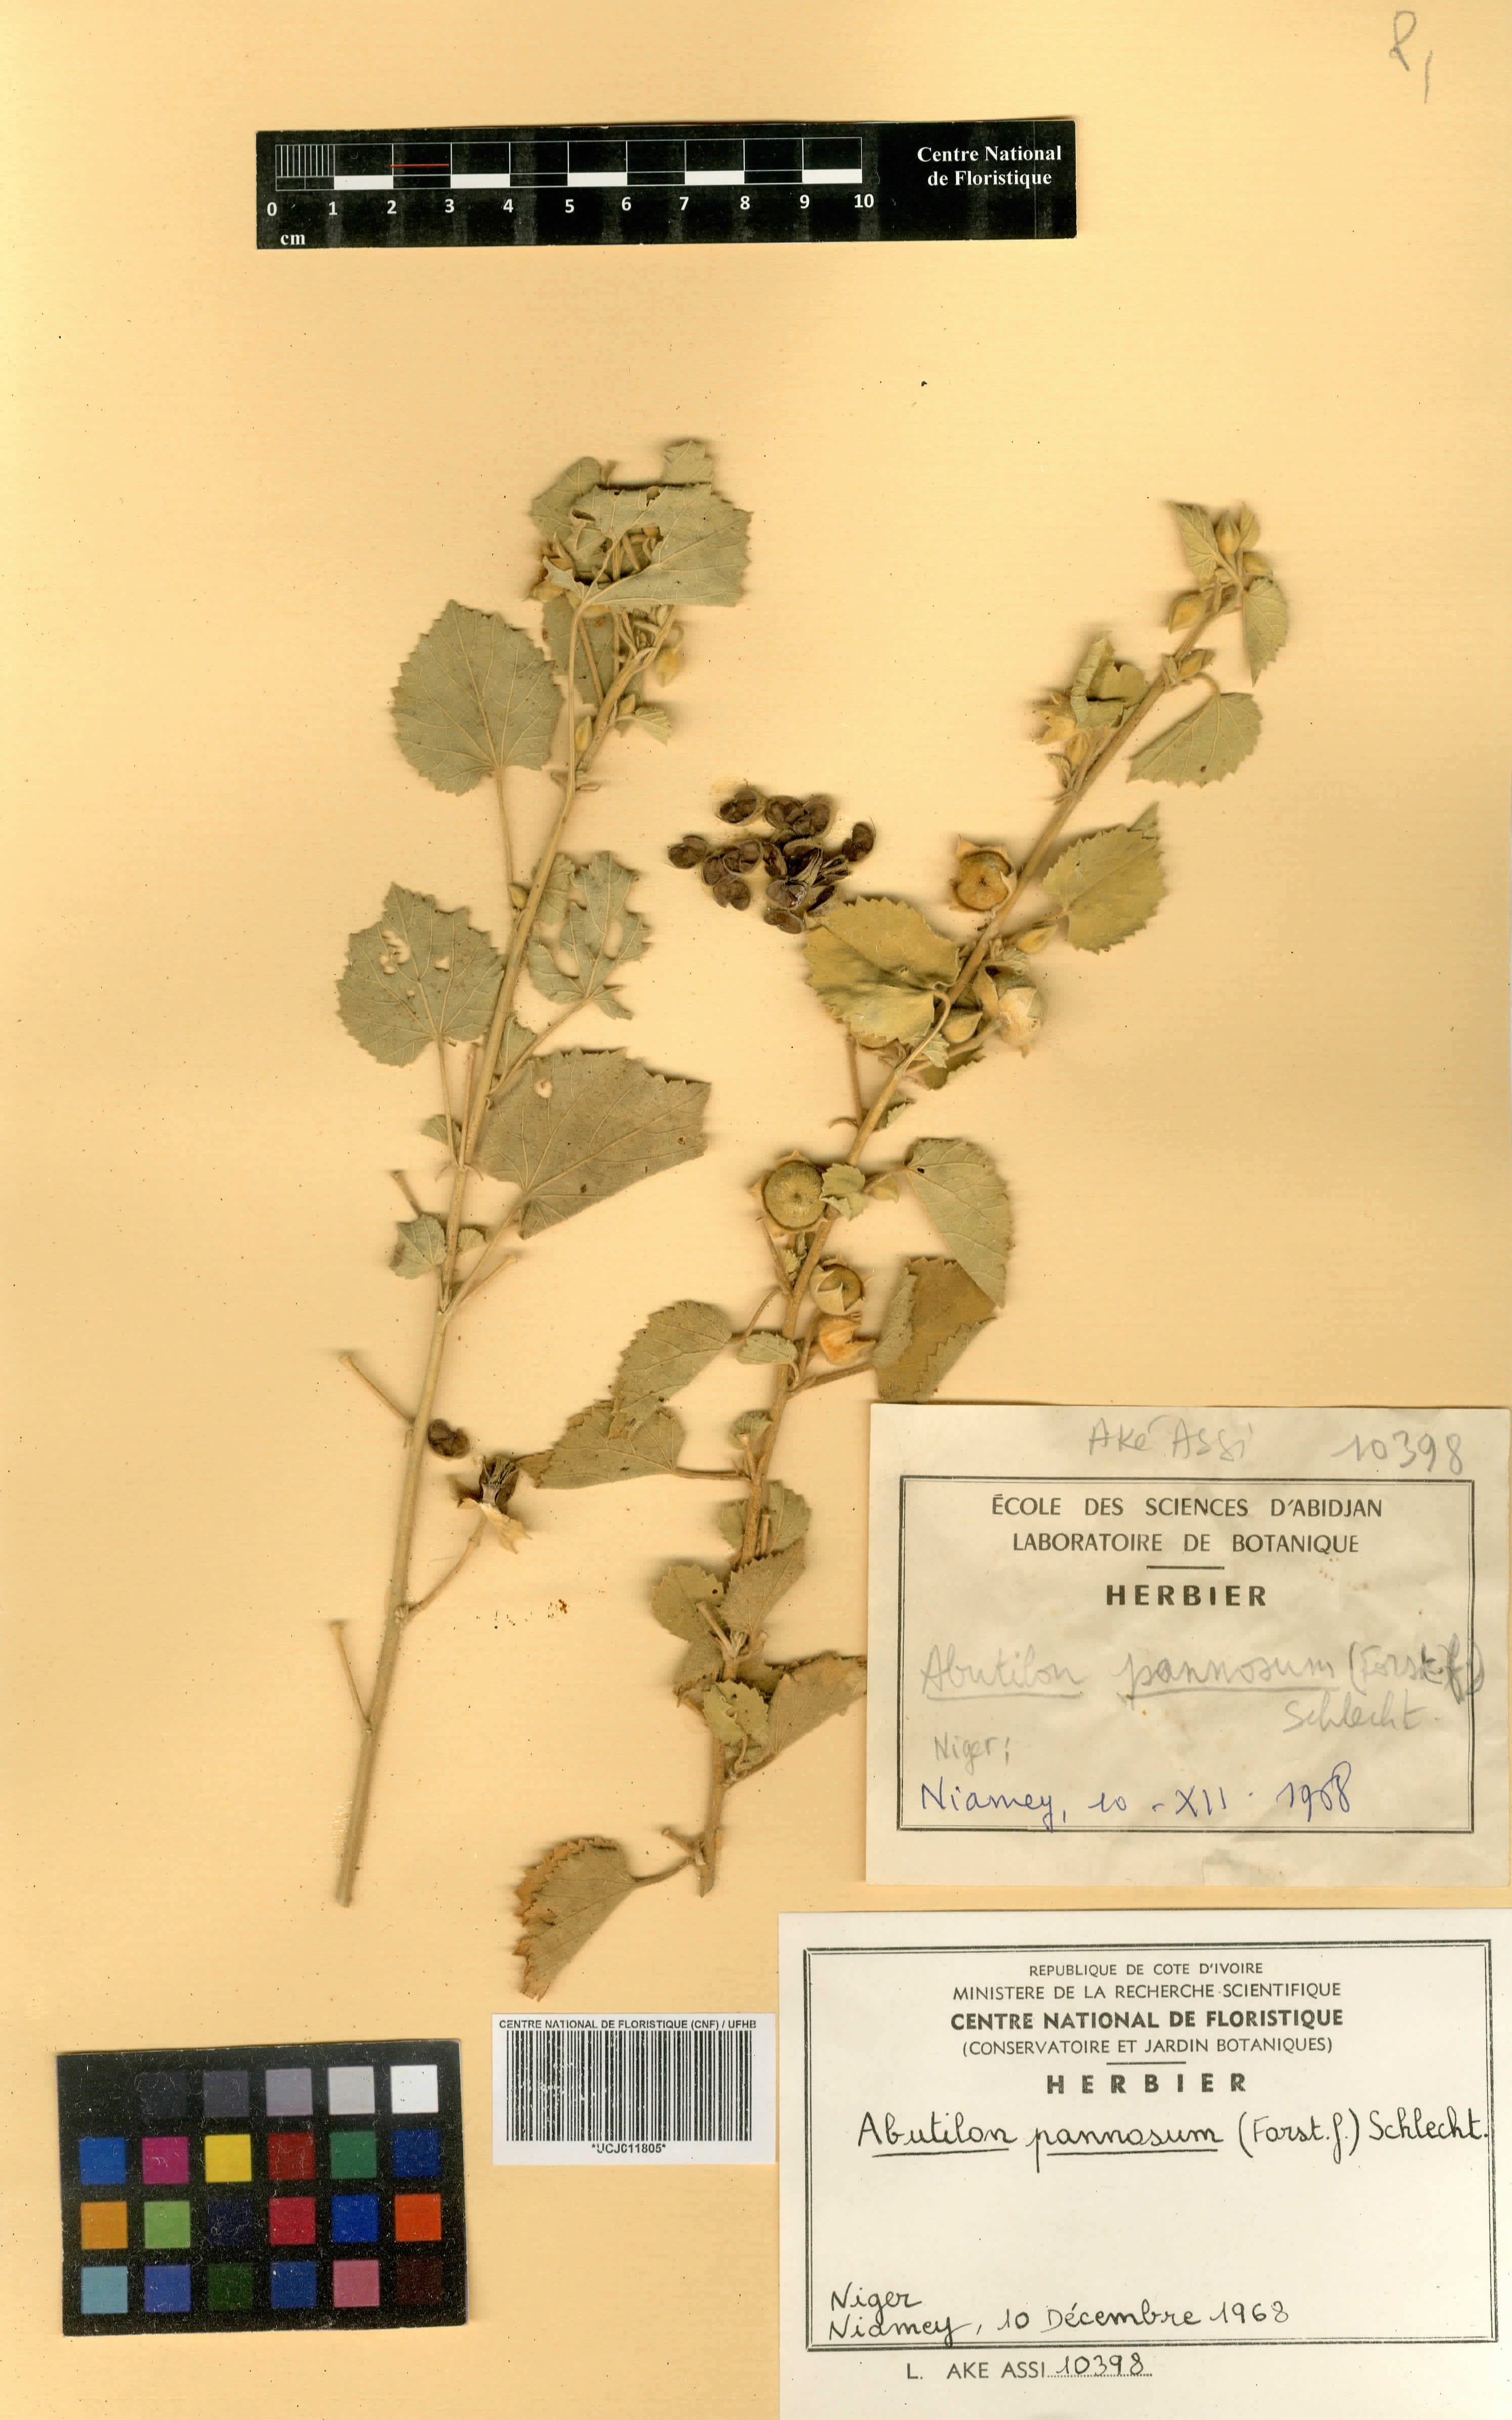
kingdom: Plantae
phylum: Tracheophyta
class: Magnoliopsida
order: Malvales
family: Malvaceae
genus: Abutilon
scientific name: Abutilon pannosum
